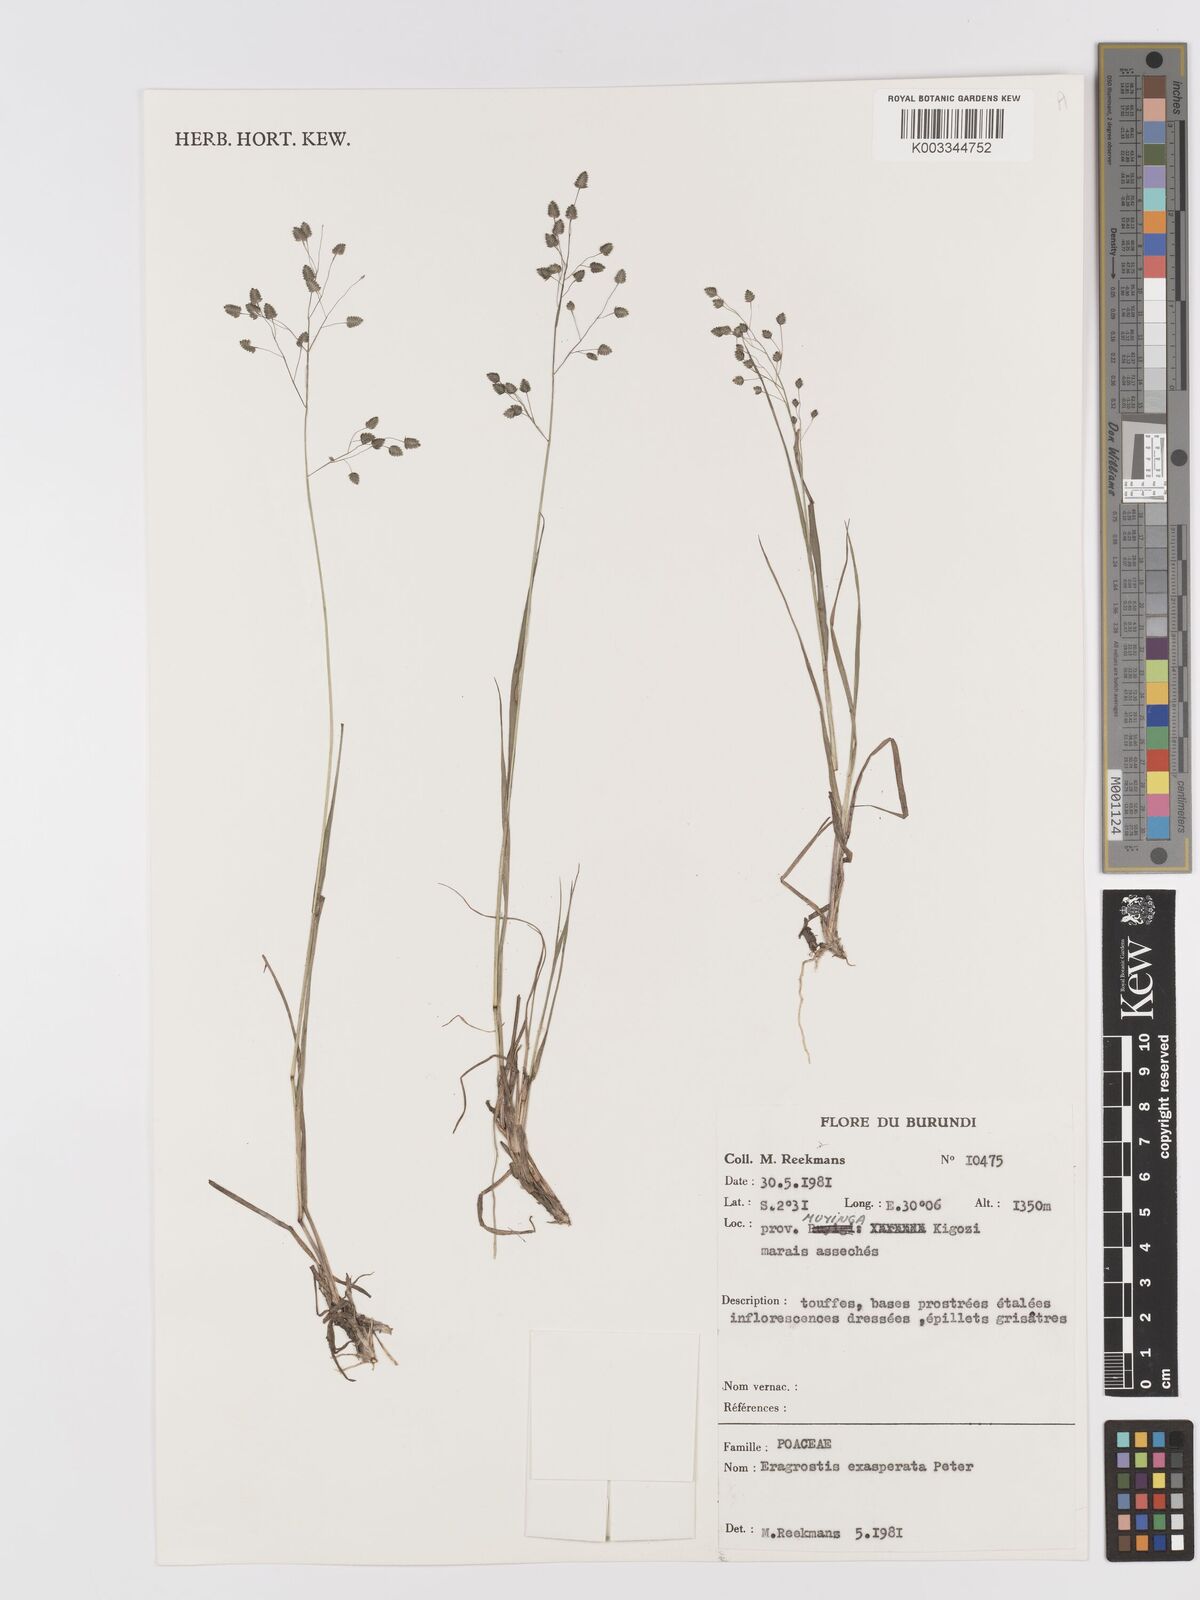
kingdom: Plantae
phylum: Tracheophyta
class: Liliopsida
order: Poales
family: Poaceae
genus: Eragrostis
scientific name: Eragrostis exasperata
